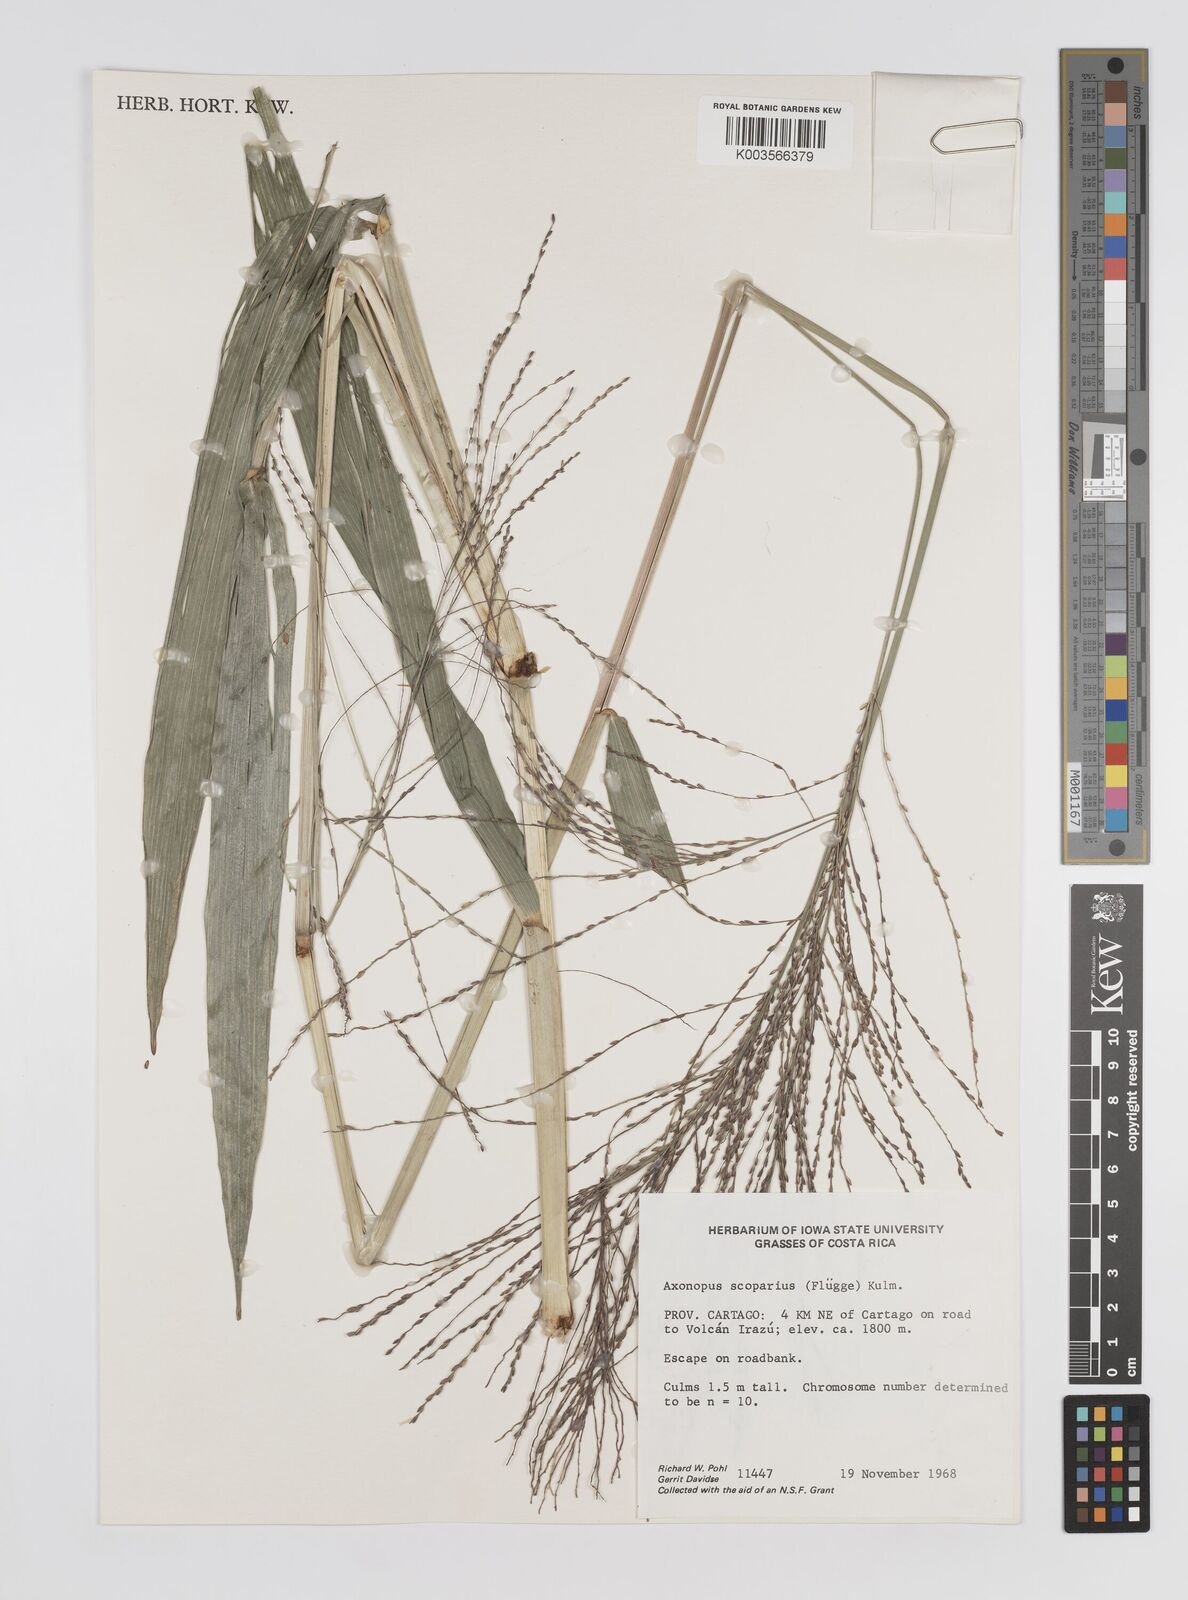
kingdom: Plantae
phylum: Tracheophyta
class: Liliopsida
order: Poales
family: Poaceae
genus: Axonopus
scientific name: Axonopus scoparius
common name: Imperial grass
